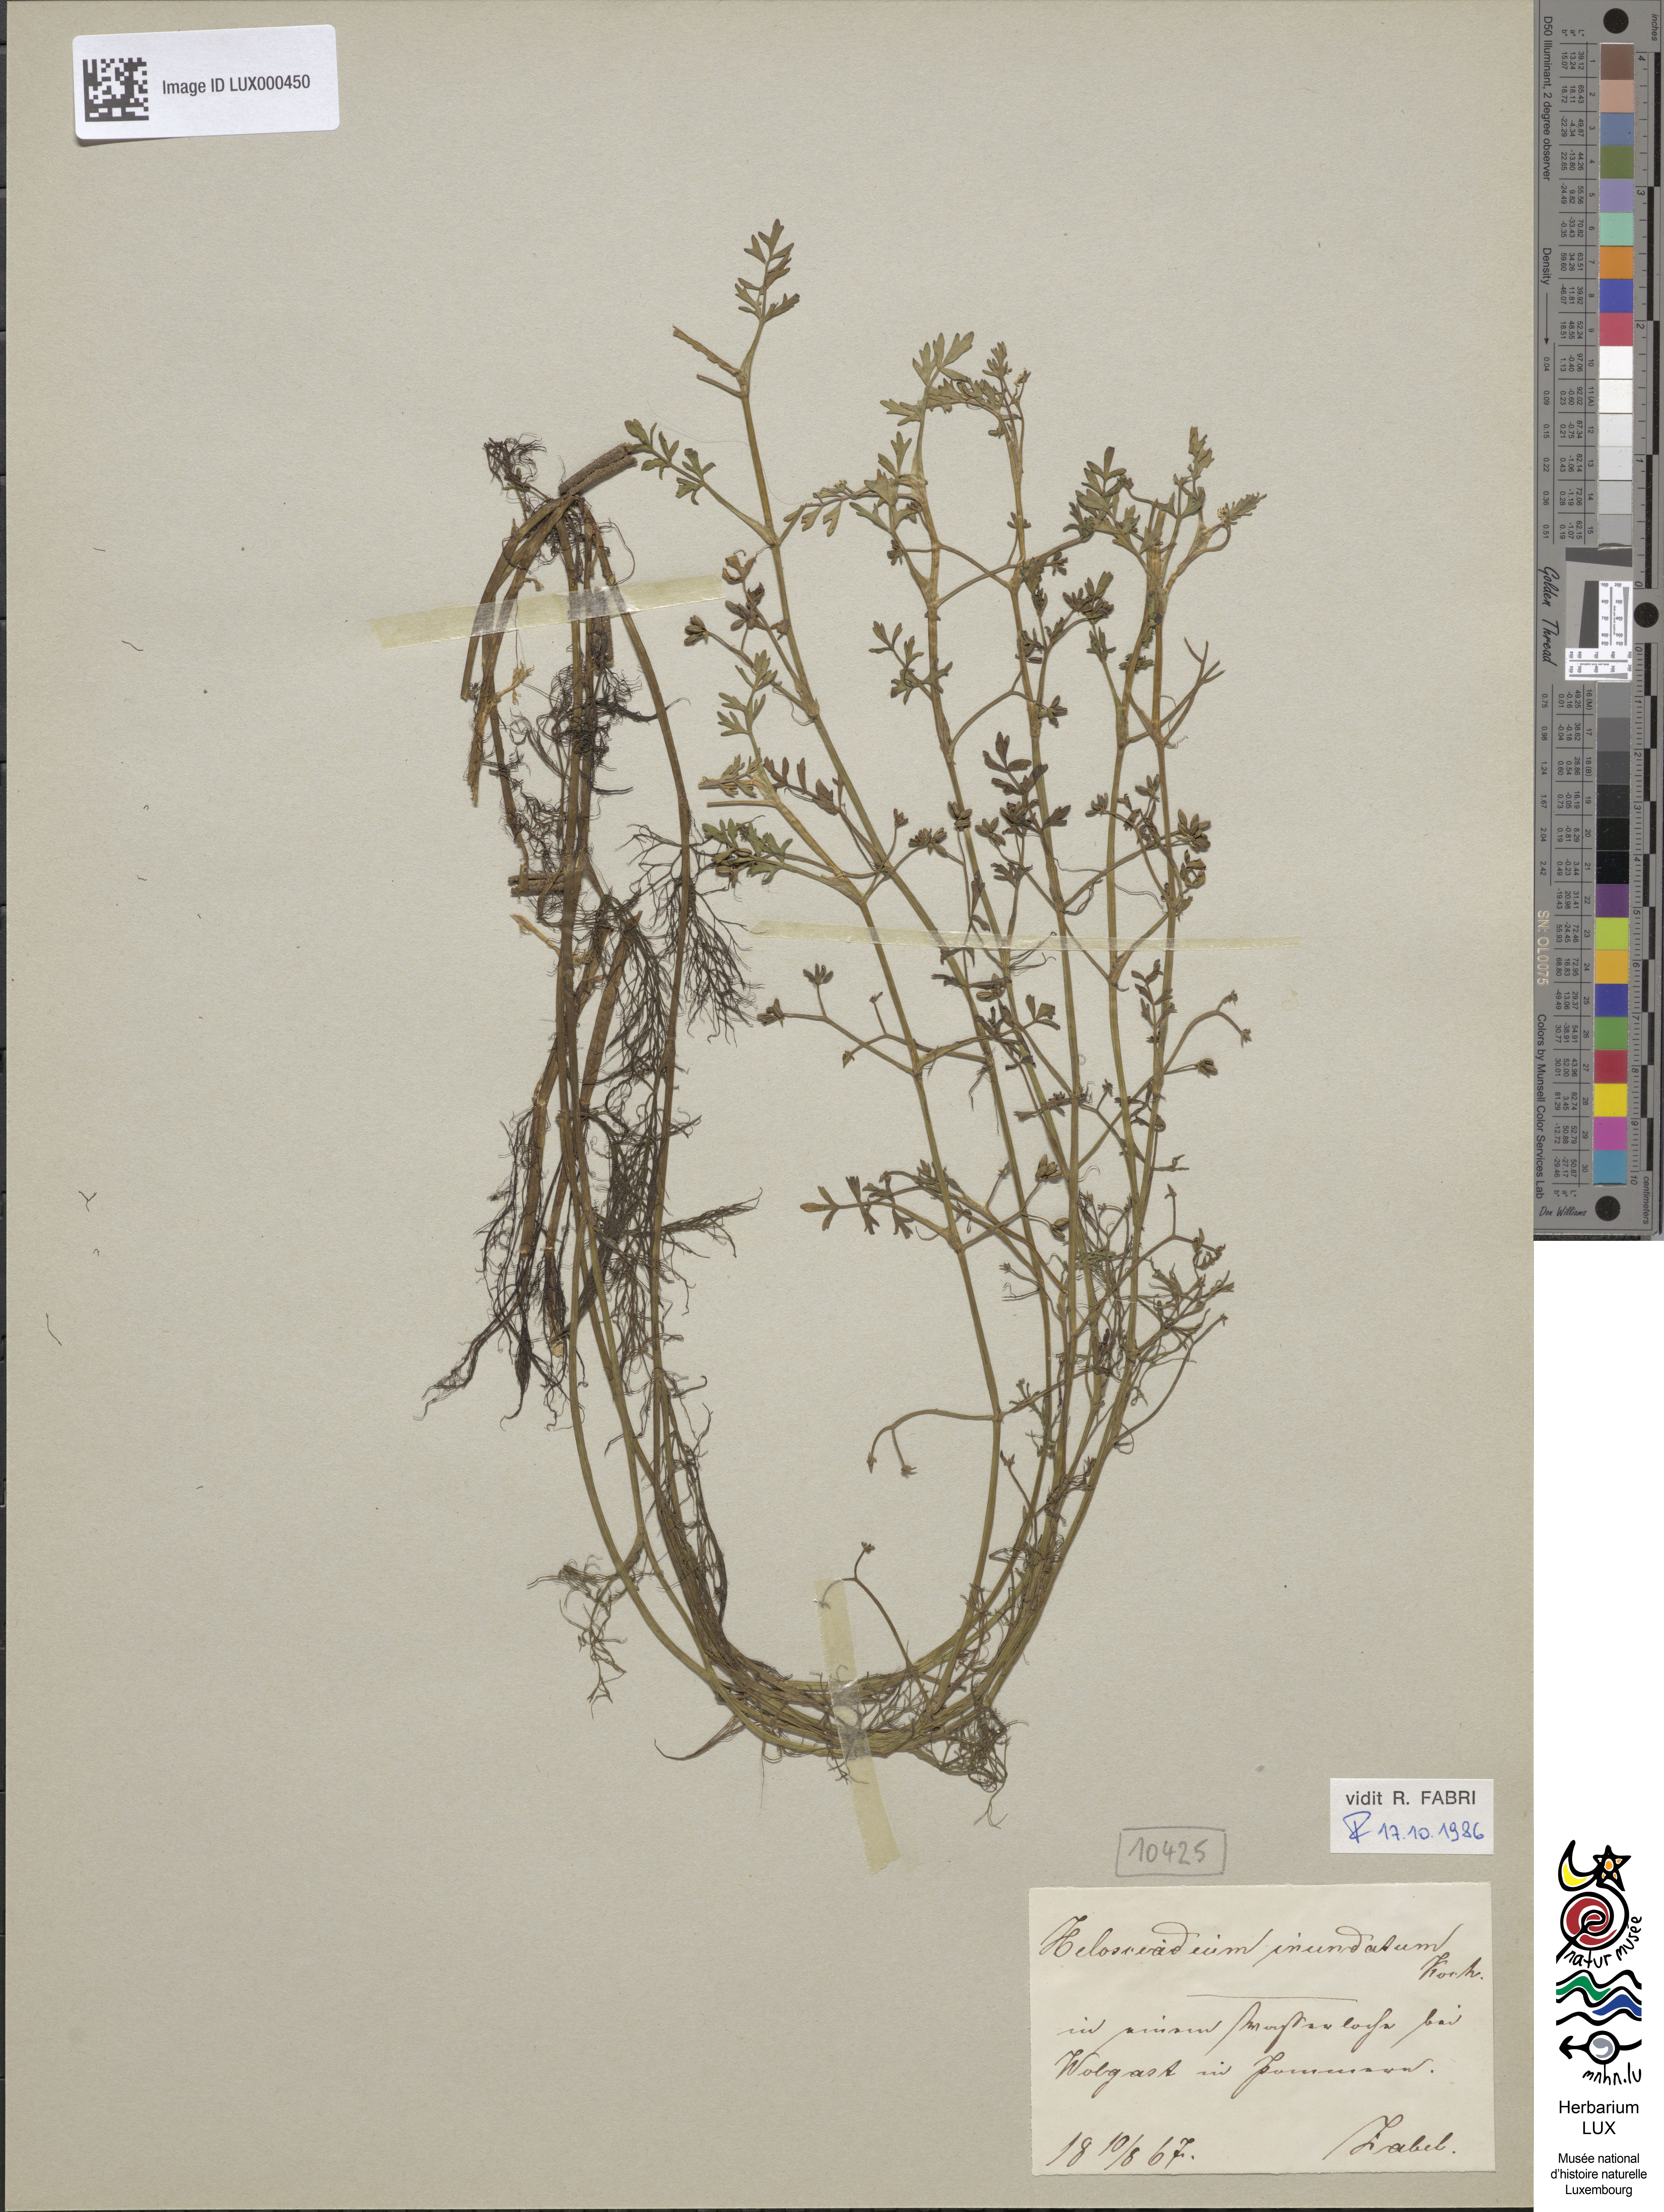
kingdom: Plantae
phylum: Tracheophyta
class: Magnoliopsida
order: Apiales
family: Apiaceae
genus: Helosciadium
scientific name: Helosciadium inundatum
